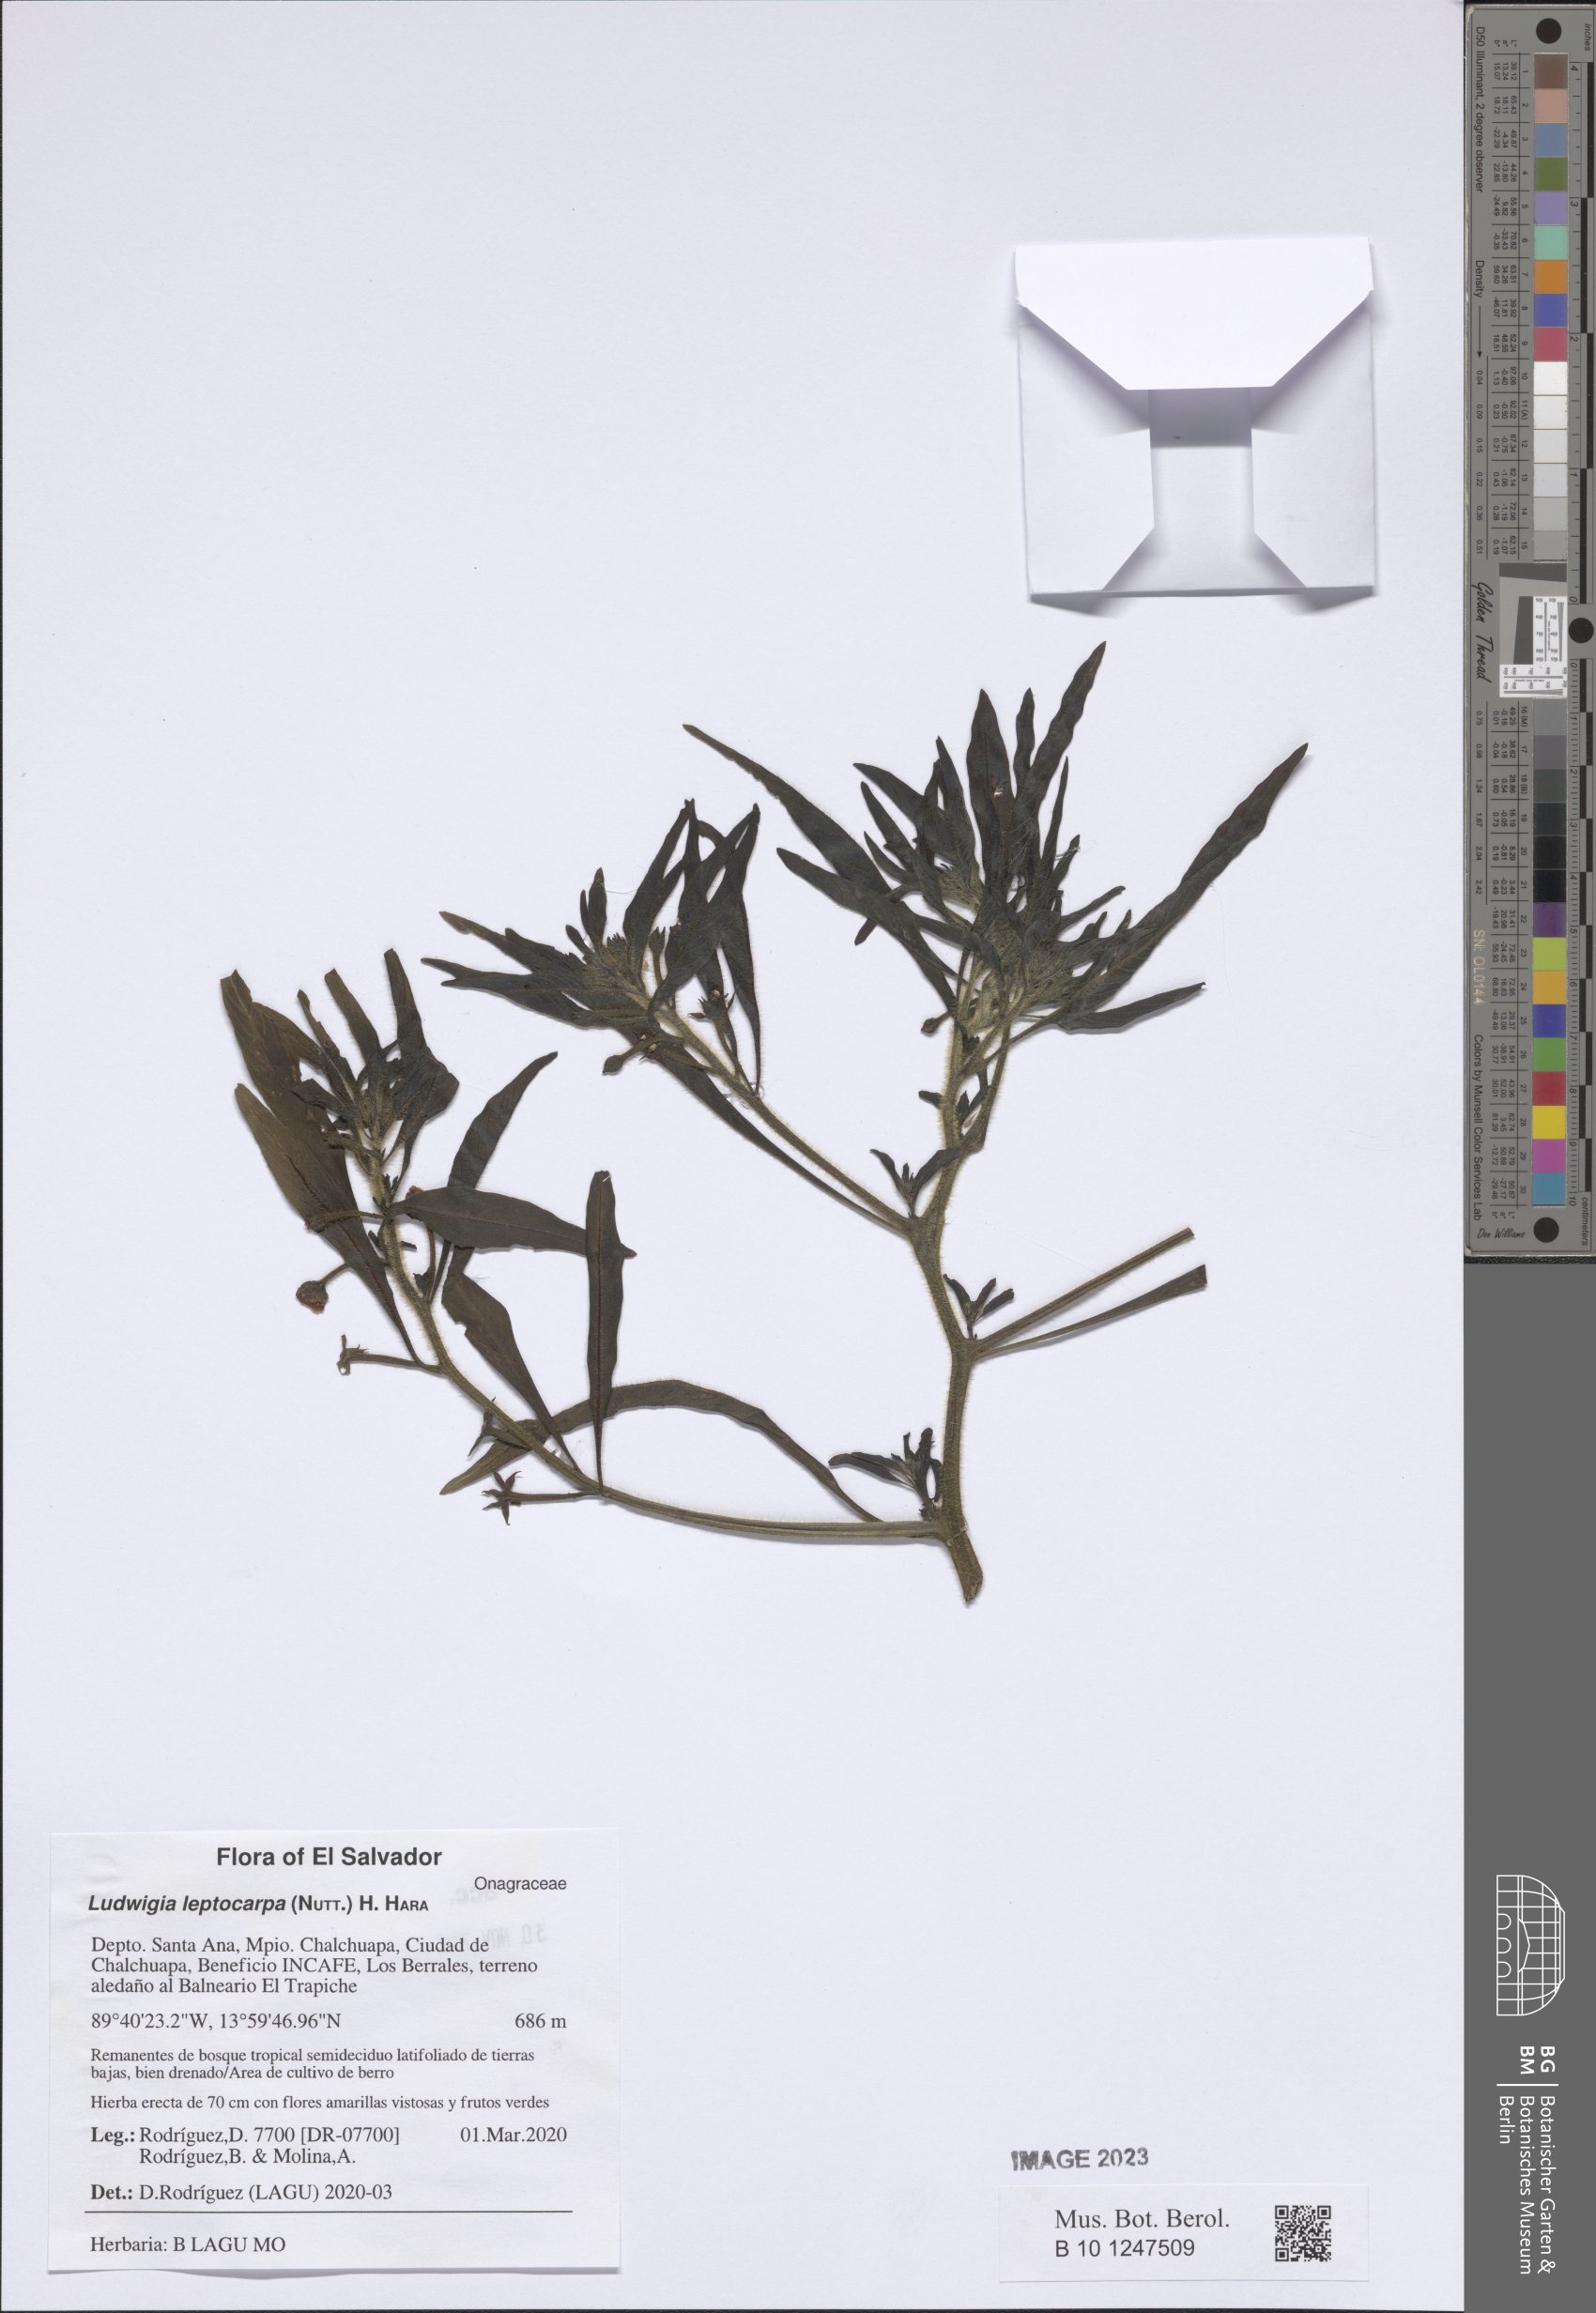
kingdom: Plantae
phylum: Tracheophyta
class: Magnoliopsida
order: Myrtales
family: Onagraceae
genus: Ludwigia
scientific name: Ludwigia leptocarpa
